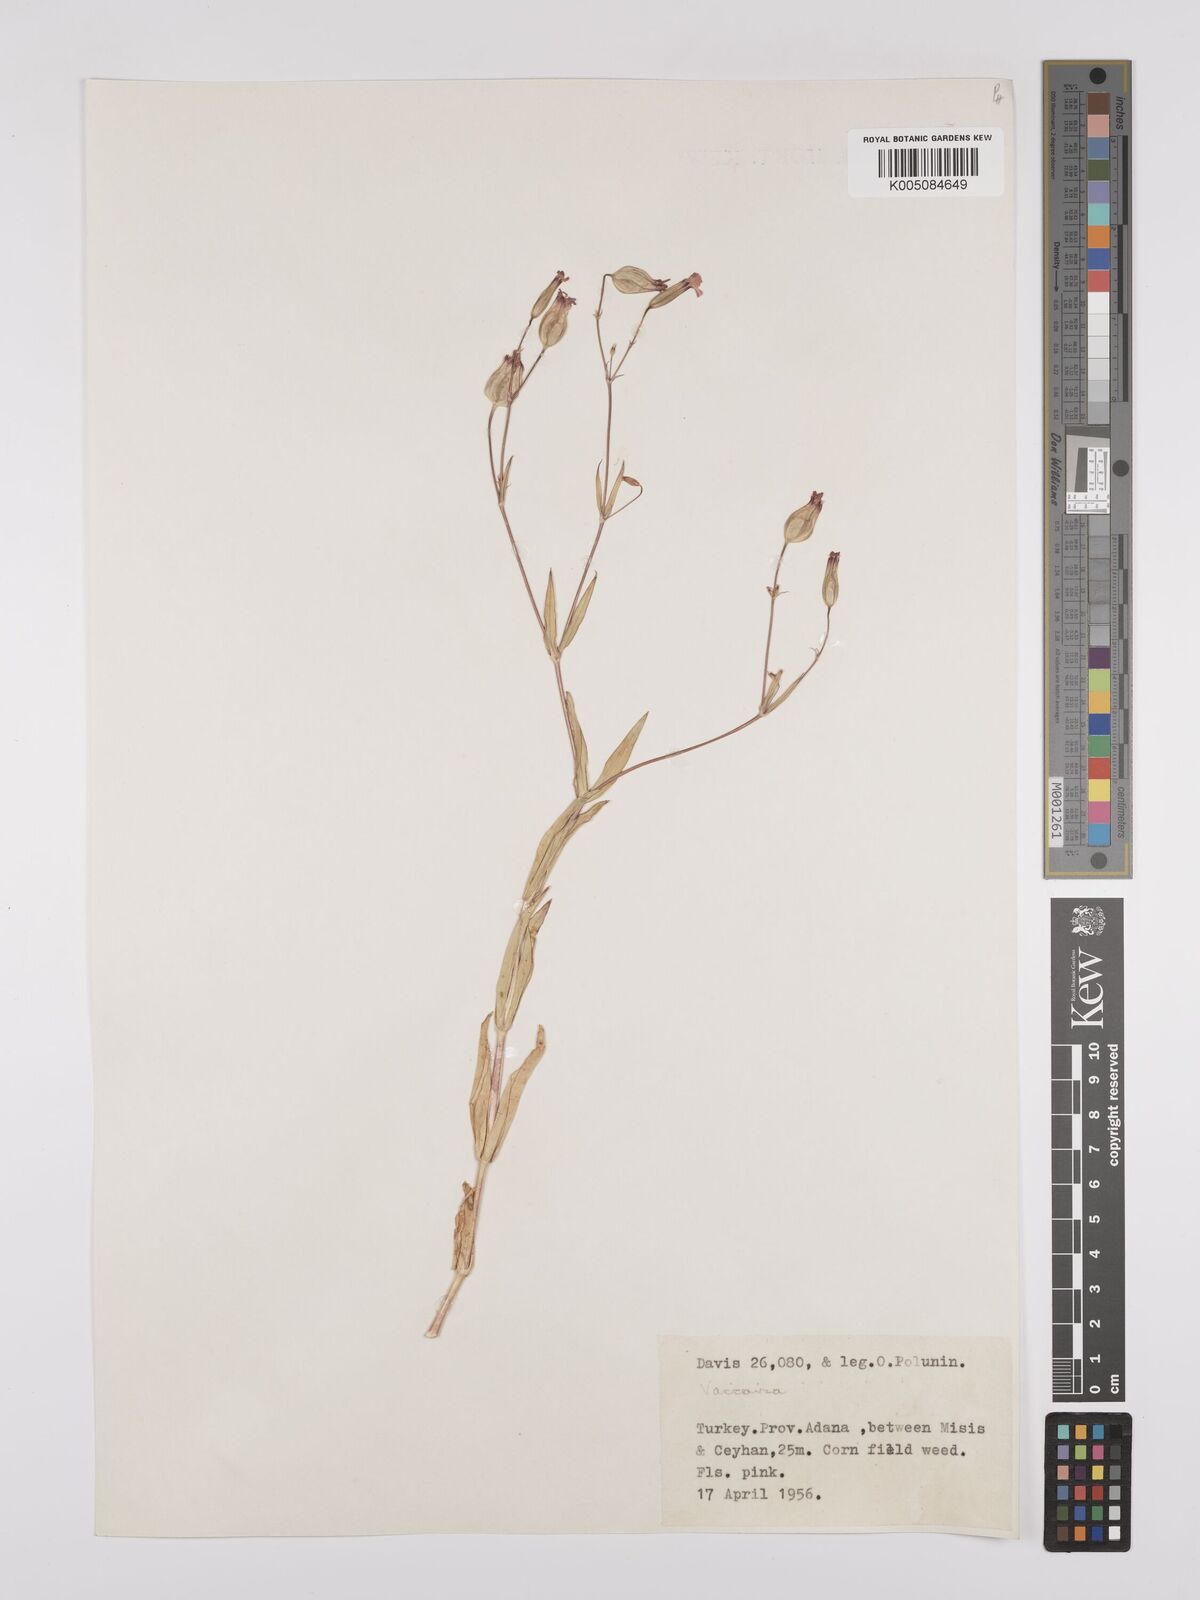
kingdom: Plantae
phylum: Tracheophyta
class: Magnoliopsida
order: Caryophyllales
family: Caryophyllaceae
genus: Vaccaria
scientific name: Vaccaria
